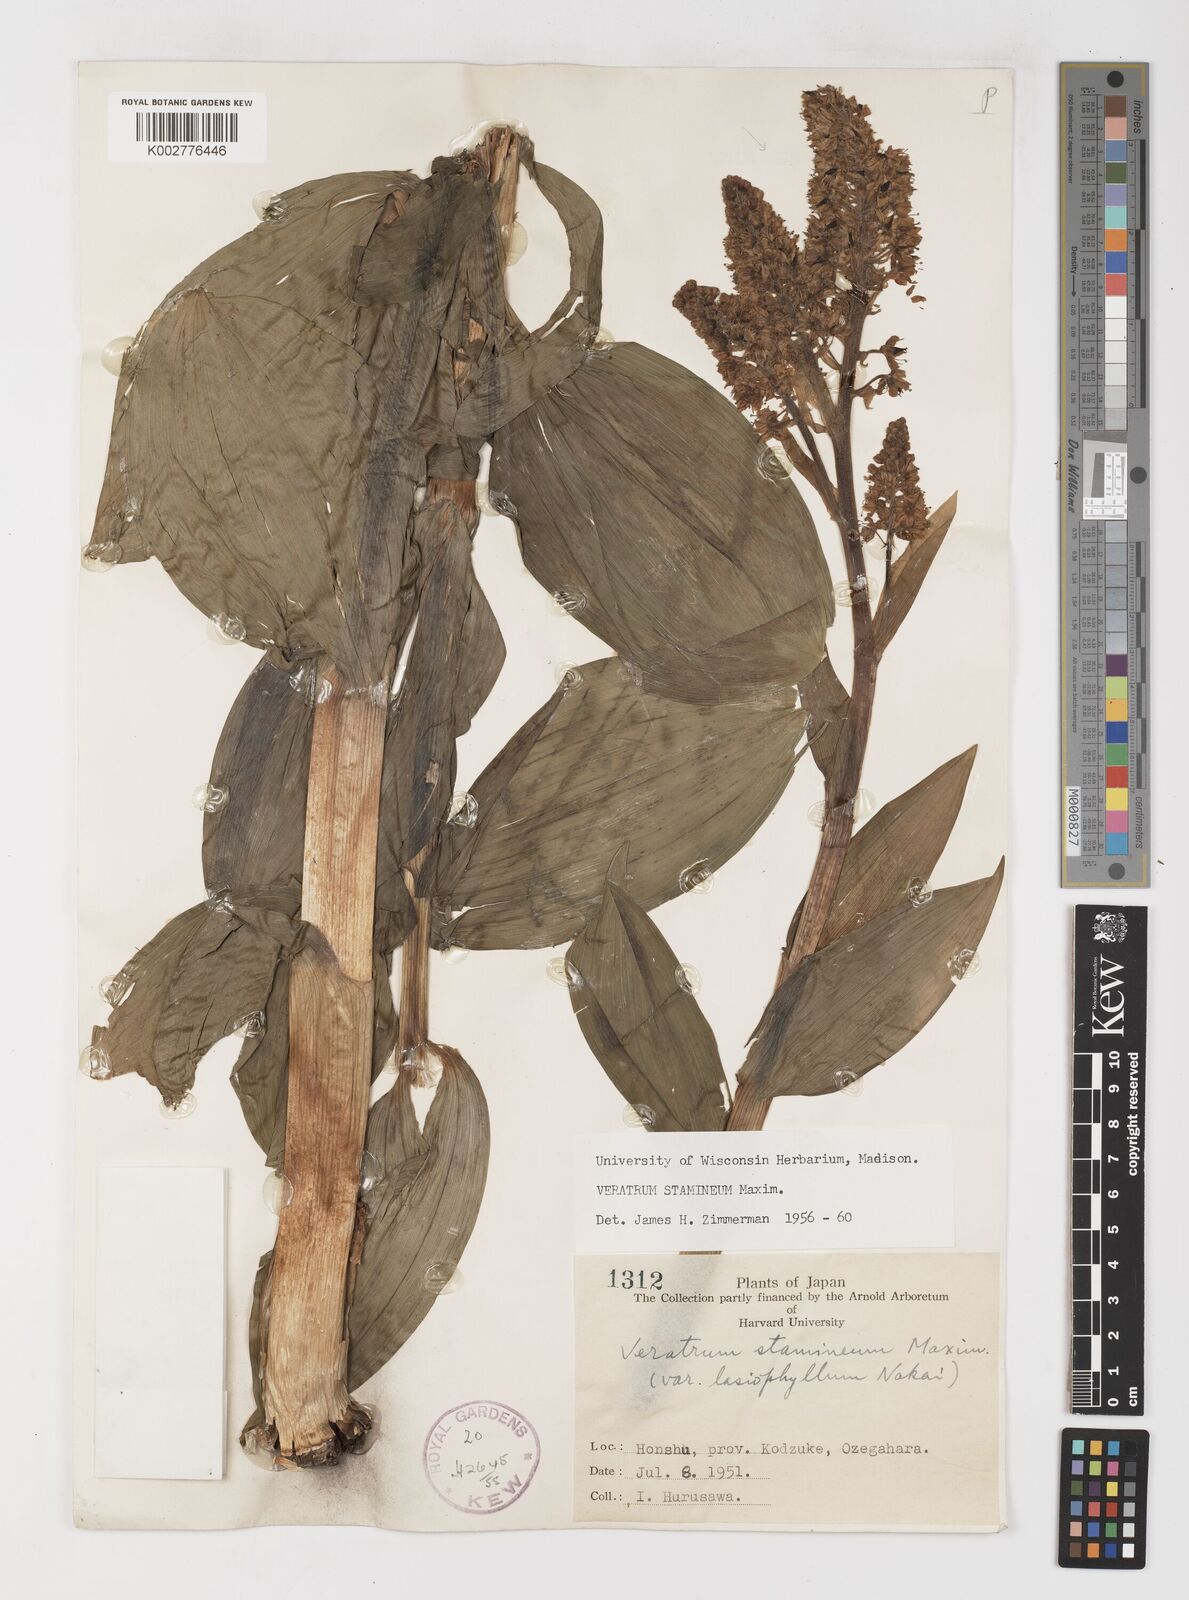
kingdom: Plantae
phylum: Tracheophyta
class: Liliopsida
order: Liliales
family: Melanthiaceae
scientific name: Melanthiaceae
